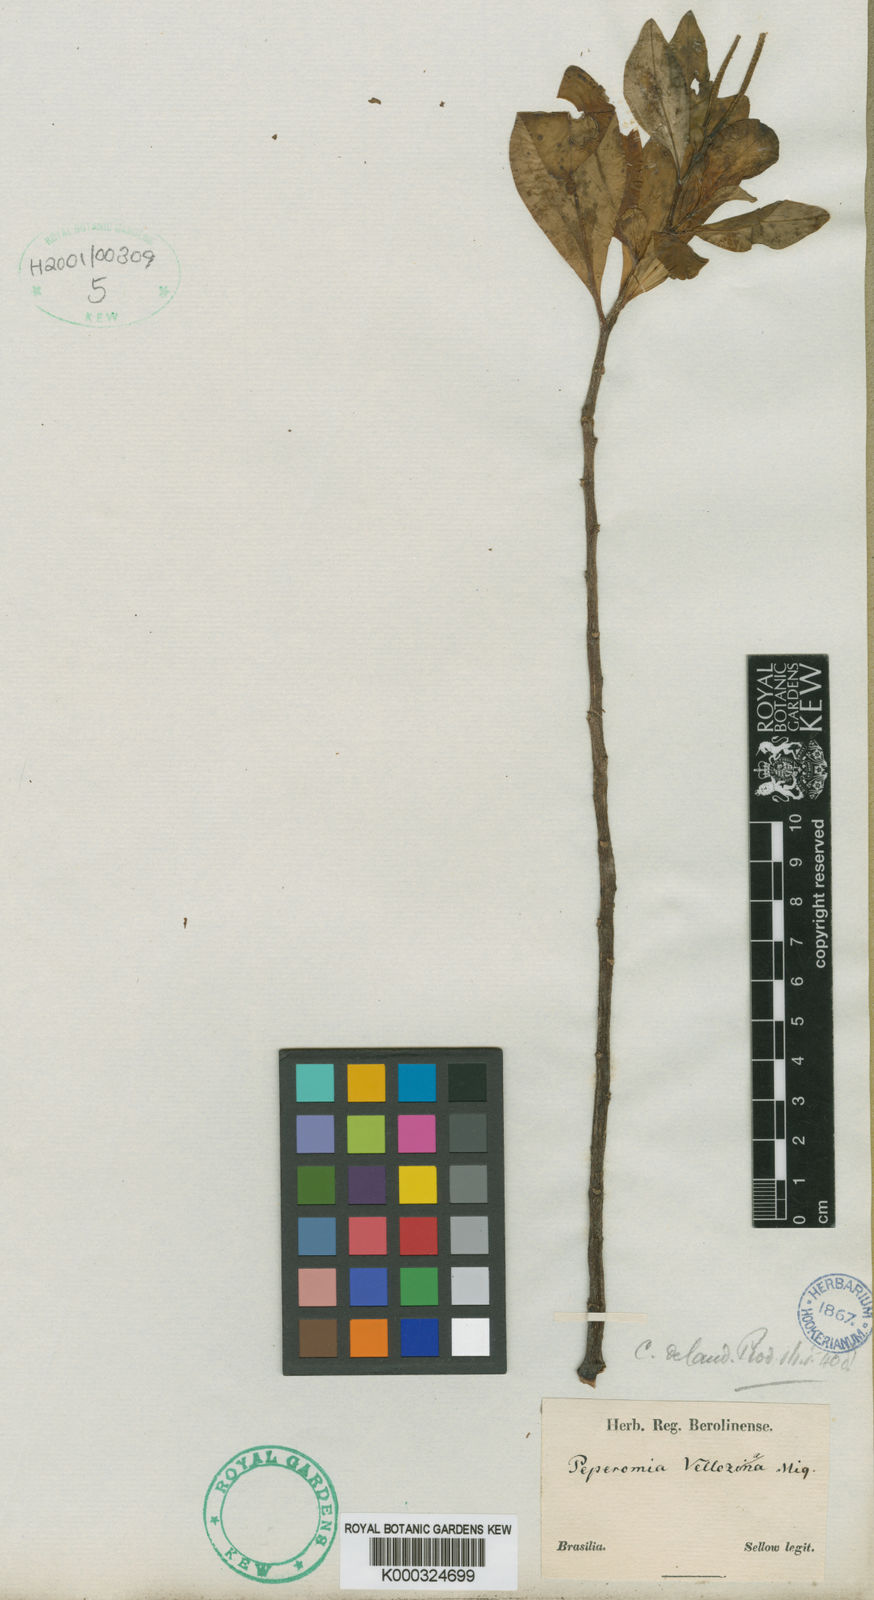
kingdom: Plantae
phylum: Tracheophyta
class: Magnoliopsida
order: Piperales
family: Piperaceae
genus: Peperomia
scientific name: Peperomia velloziana
